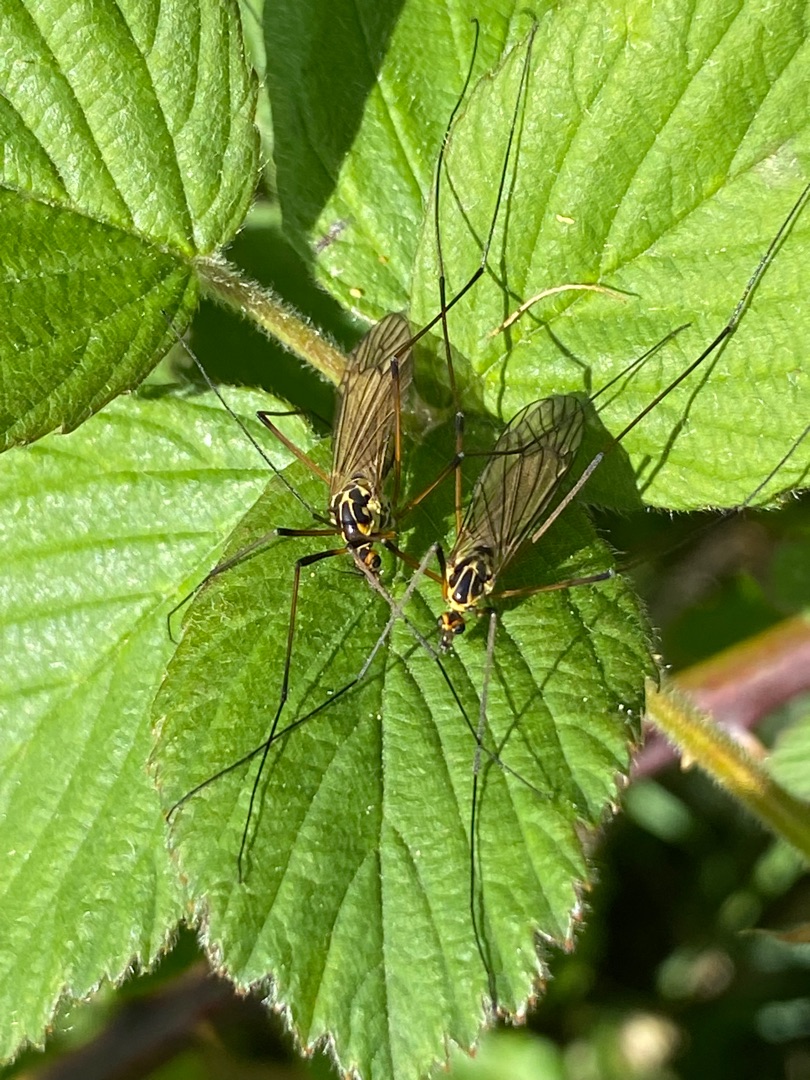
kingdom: Animalia
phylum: Arthropoda
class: Insecta
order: Diptera
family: Tipulidae
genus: Nephrotoma
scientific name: Nephrotoma appendiculata
